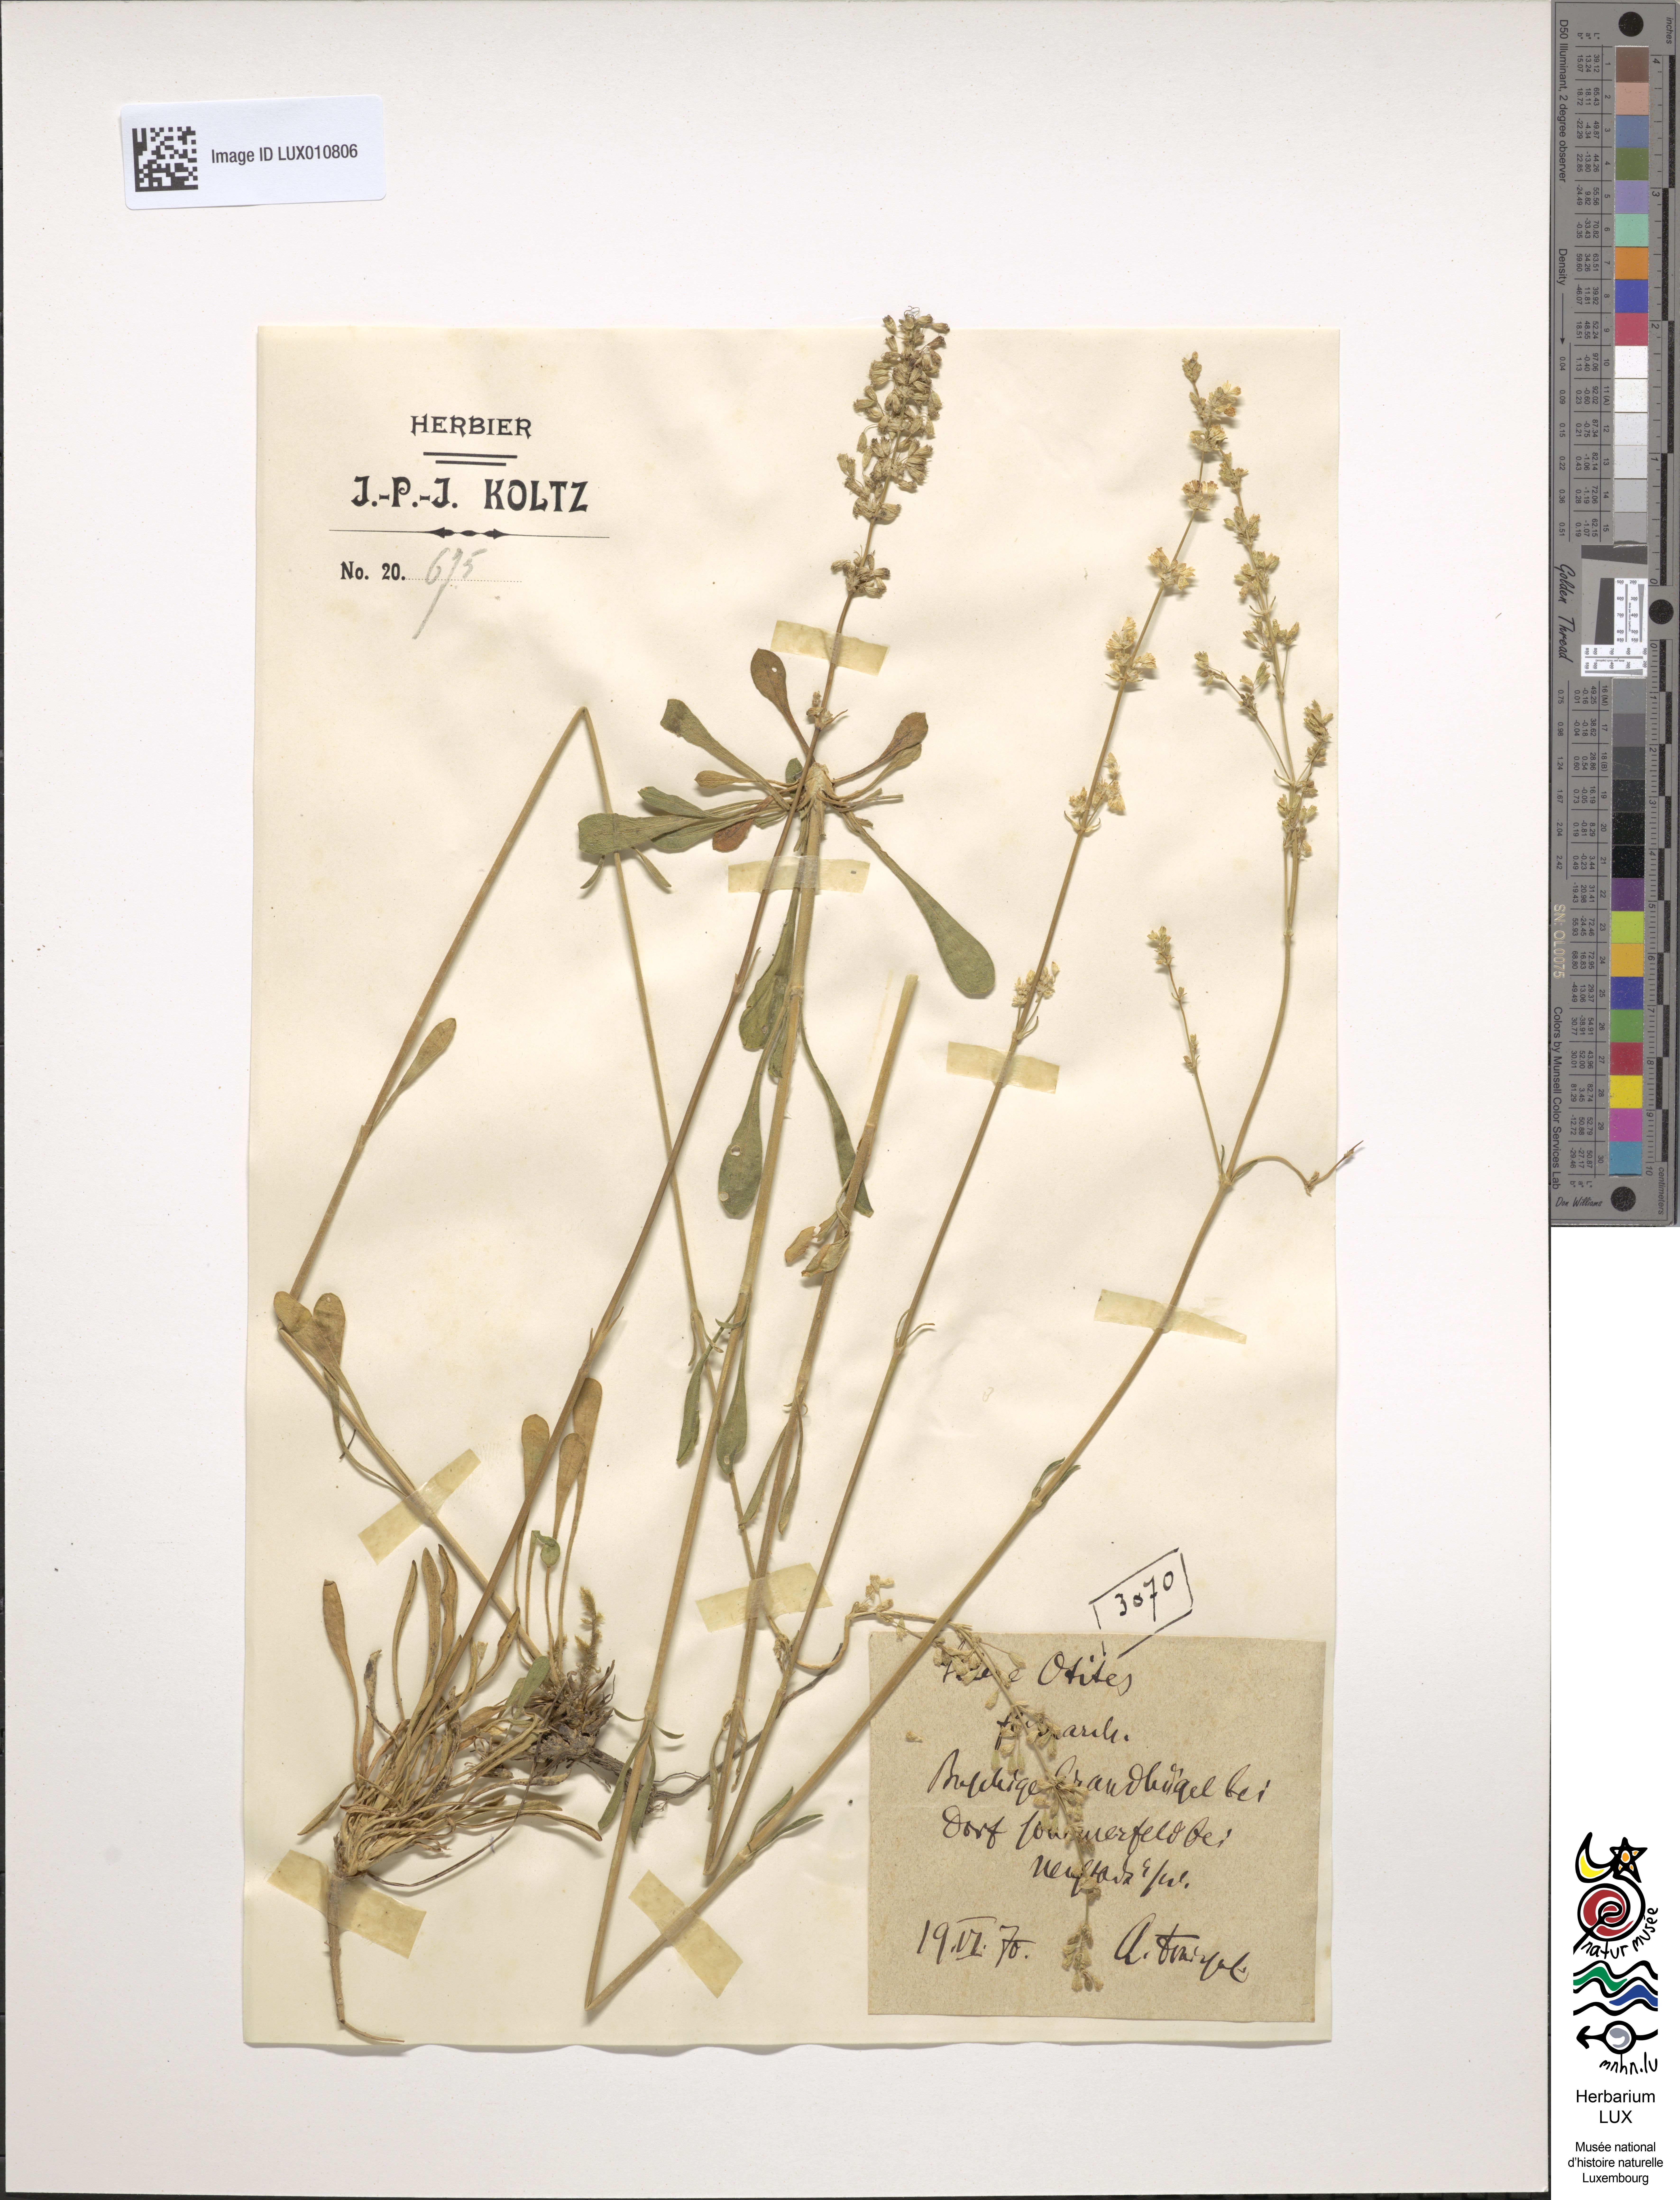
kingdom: Plantae
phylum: Tracheophyta
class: Magnoliopsida
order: Caryophyllales
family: Caryophyllaceae
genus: Silene
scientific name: Silene otites
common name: Spanish catchfly
